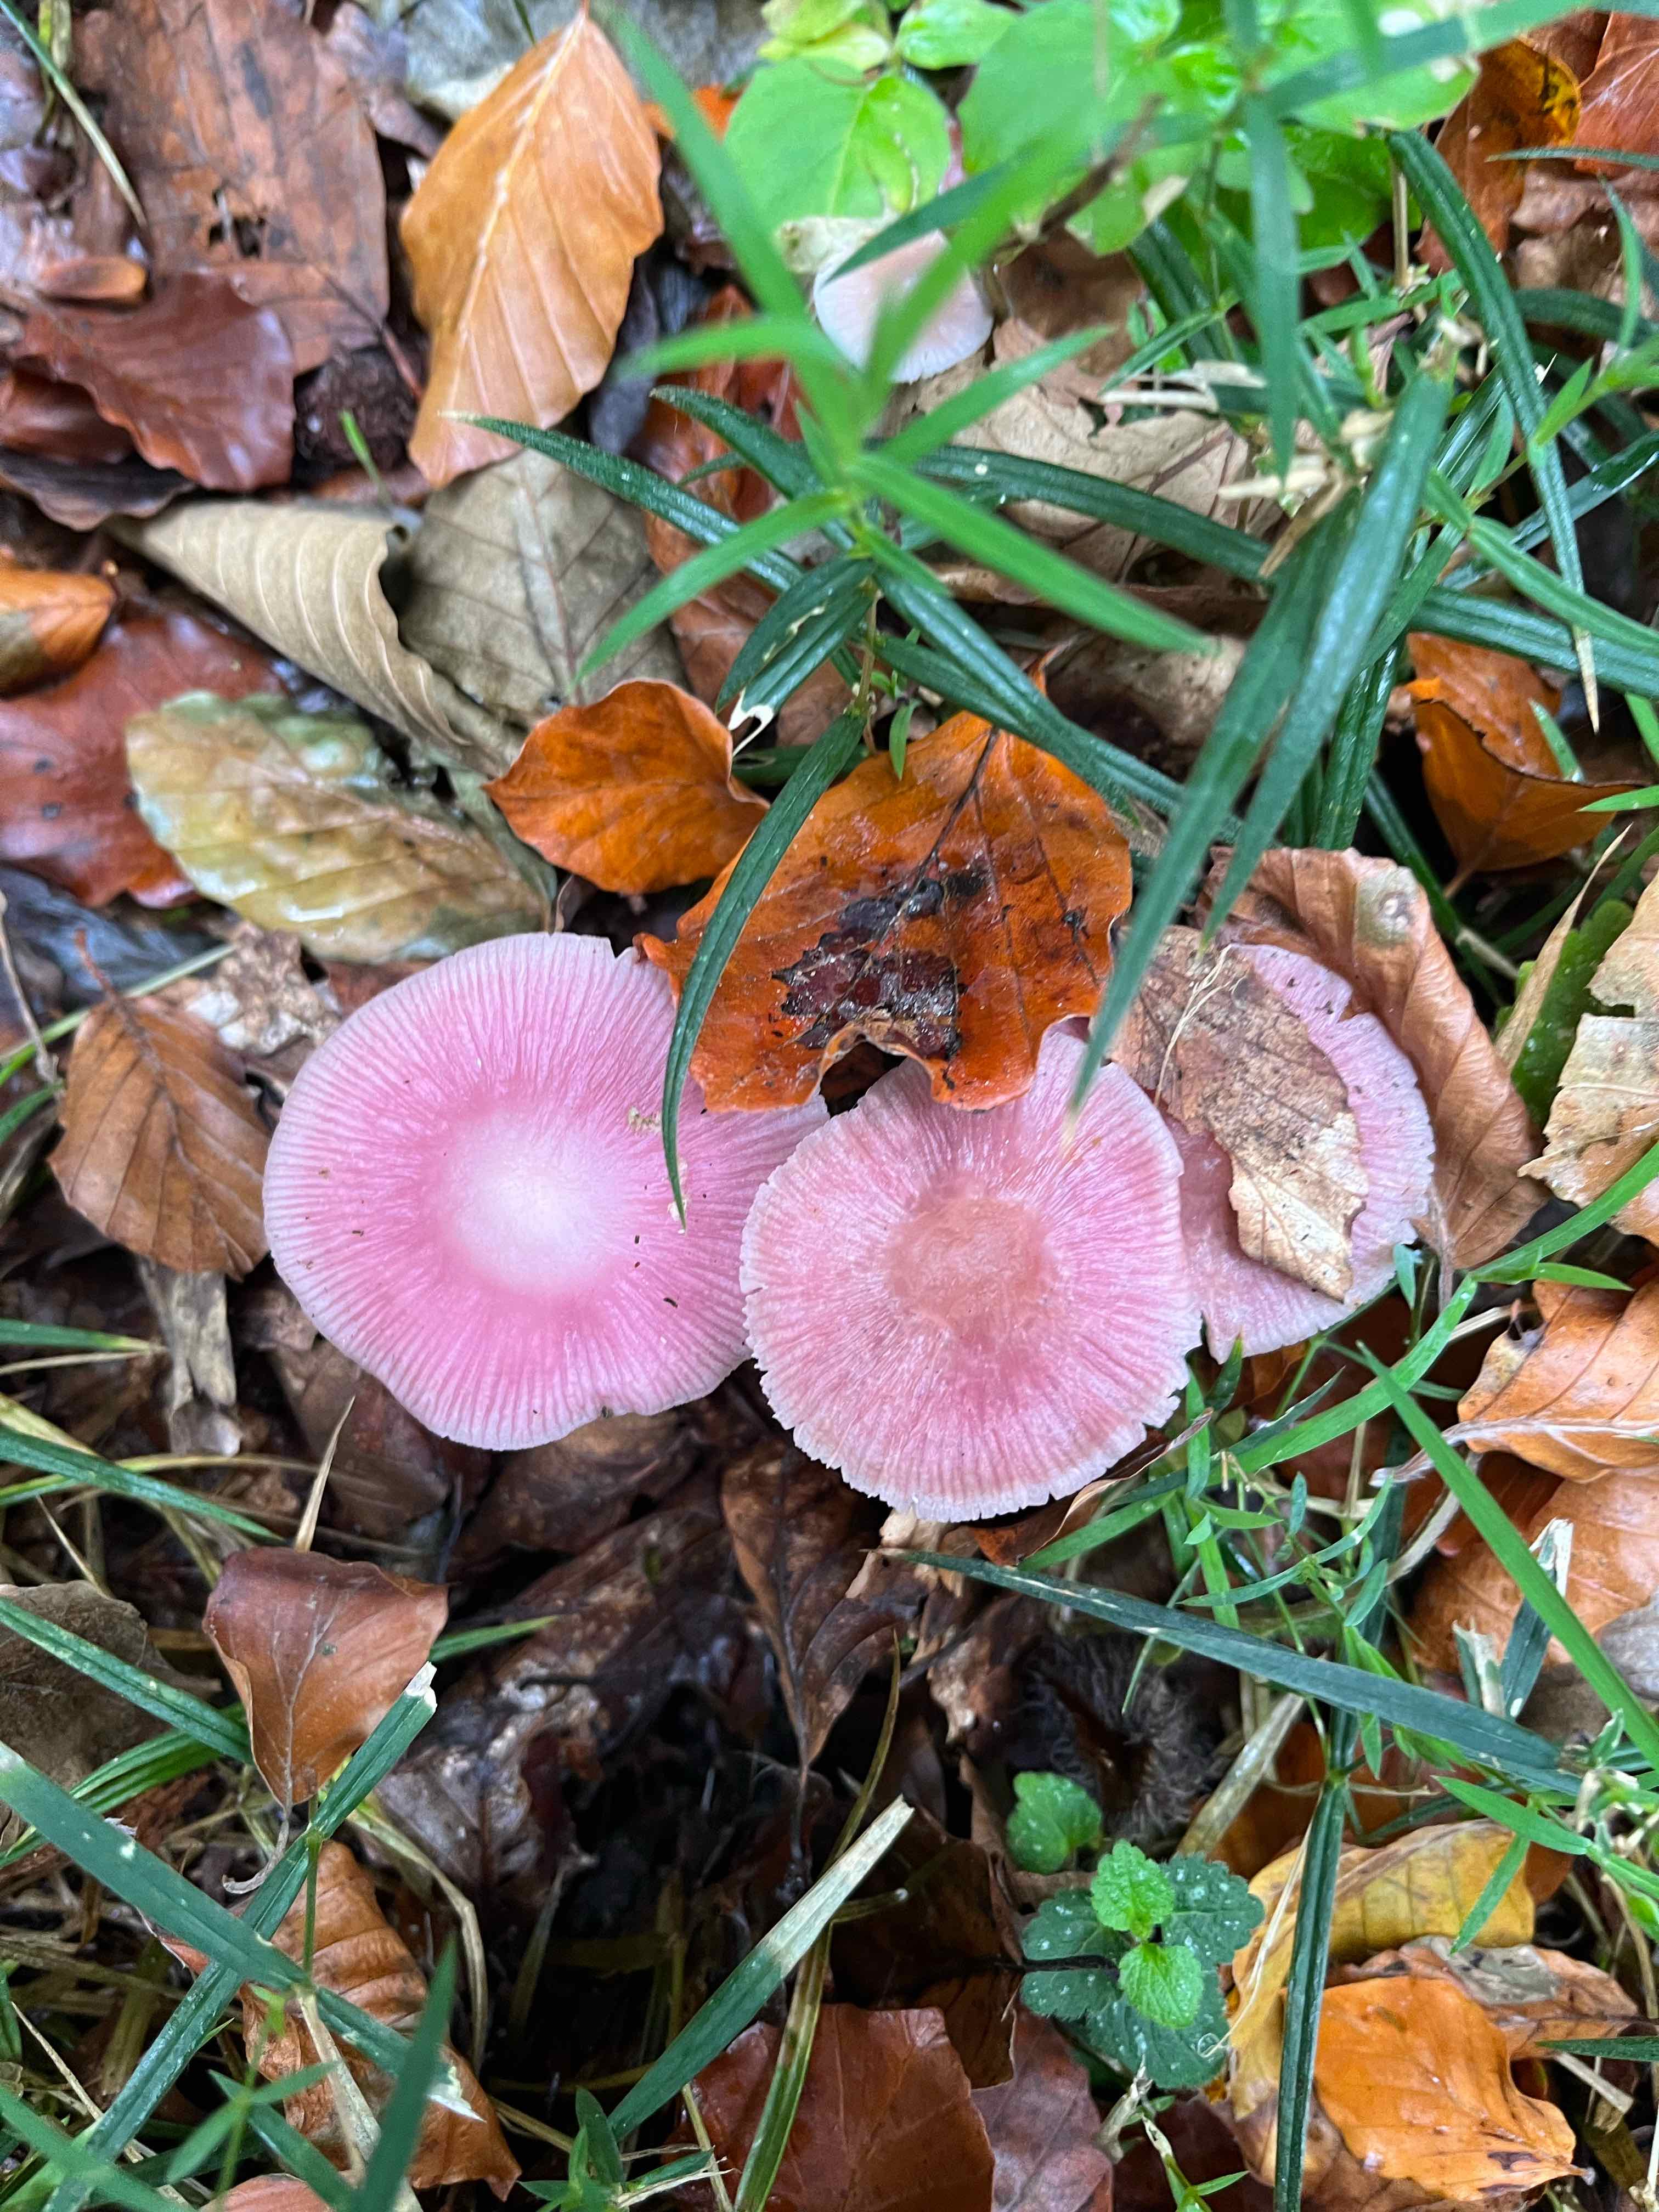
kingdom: Fungi
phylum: Basidiomycota
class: Agaricomycetes
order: Agaricales
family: Mycenaceae
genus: Mycena
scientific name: Mycena rosea
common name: rosa huesvamp
